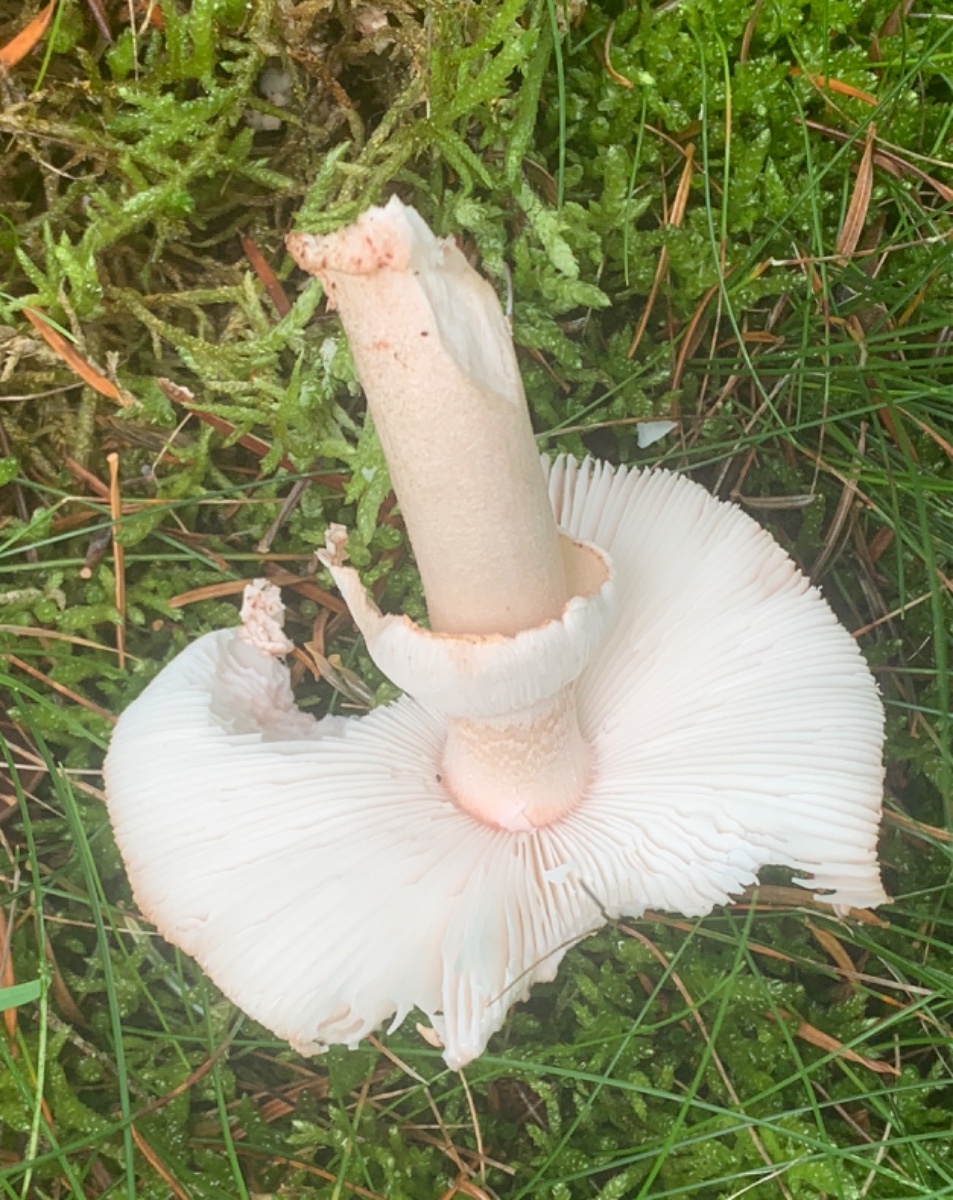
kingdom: Fungi
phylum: Basidiomycota
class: Agaricomycetes
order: Agaricales
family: Amanitaceae
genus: Amanita
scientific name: Amanita rubescens
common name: rødmende fluesvamp
